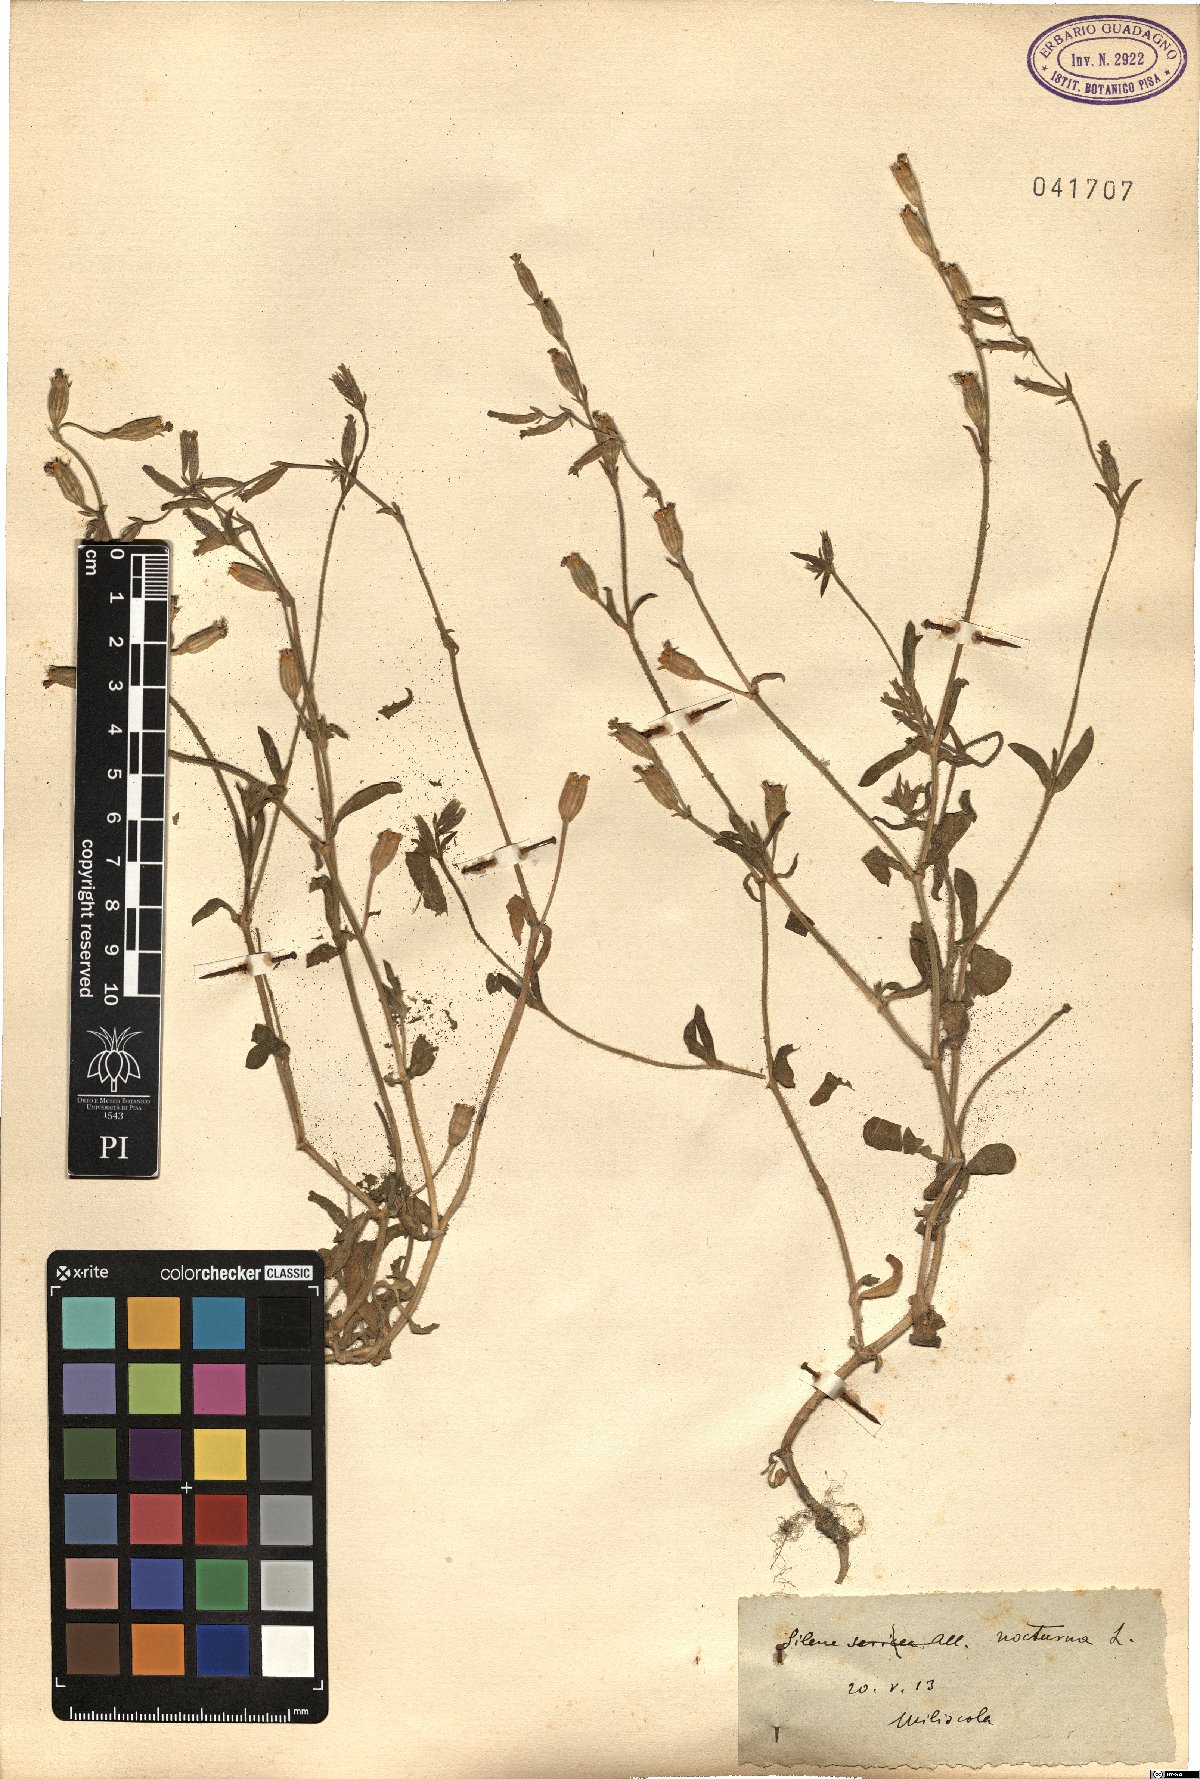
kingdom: Plantae
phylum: Tracheophyta
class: Magnoliopsida
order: Caryophyllales
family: Caryophyllaceae
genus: Silene
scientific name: Silene nocturna
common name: Mediterranean catchfly
